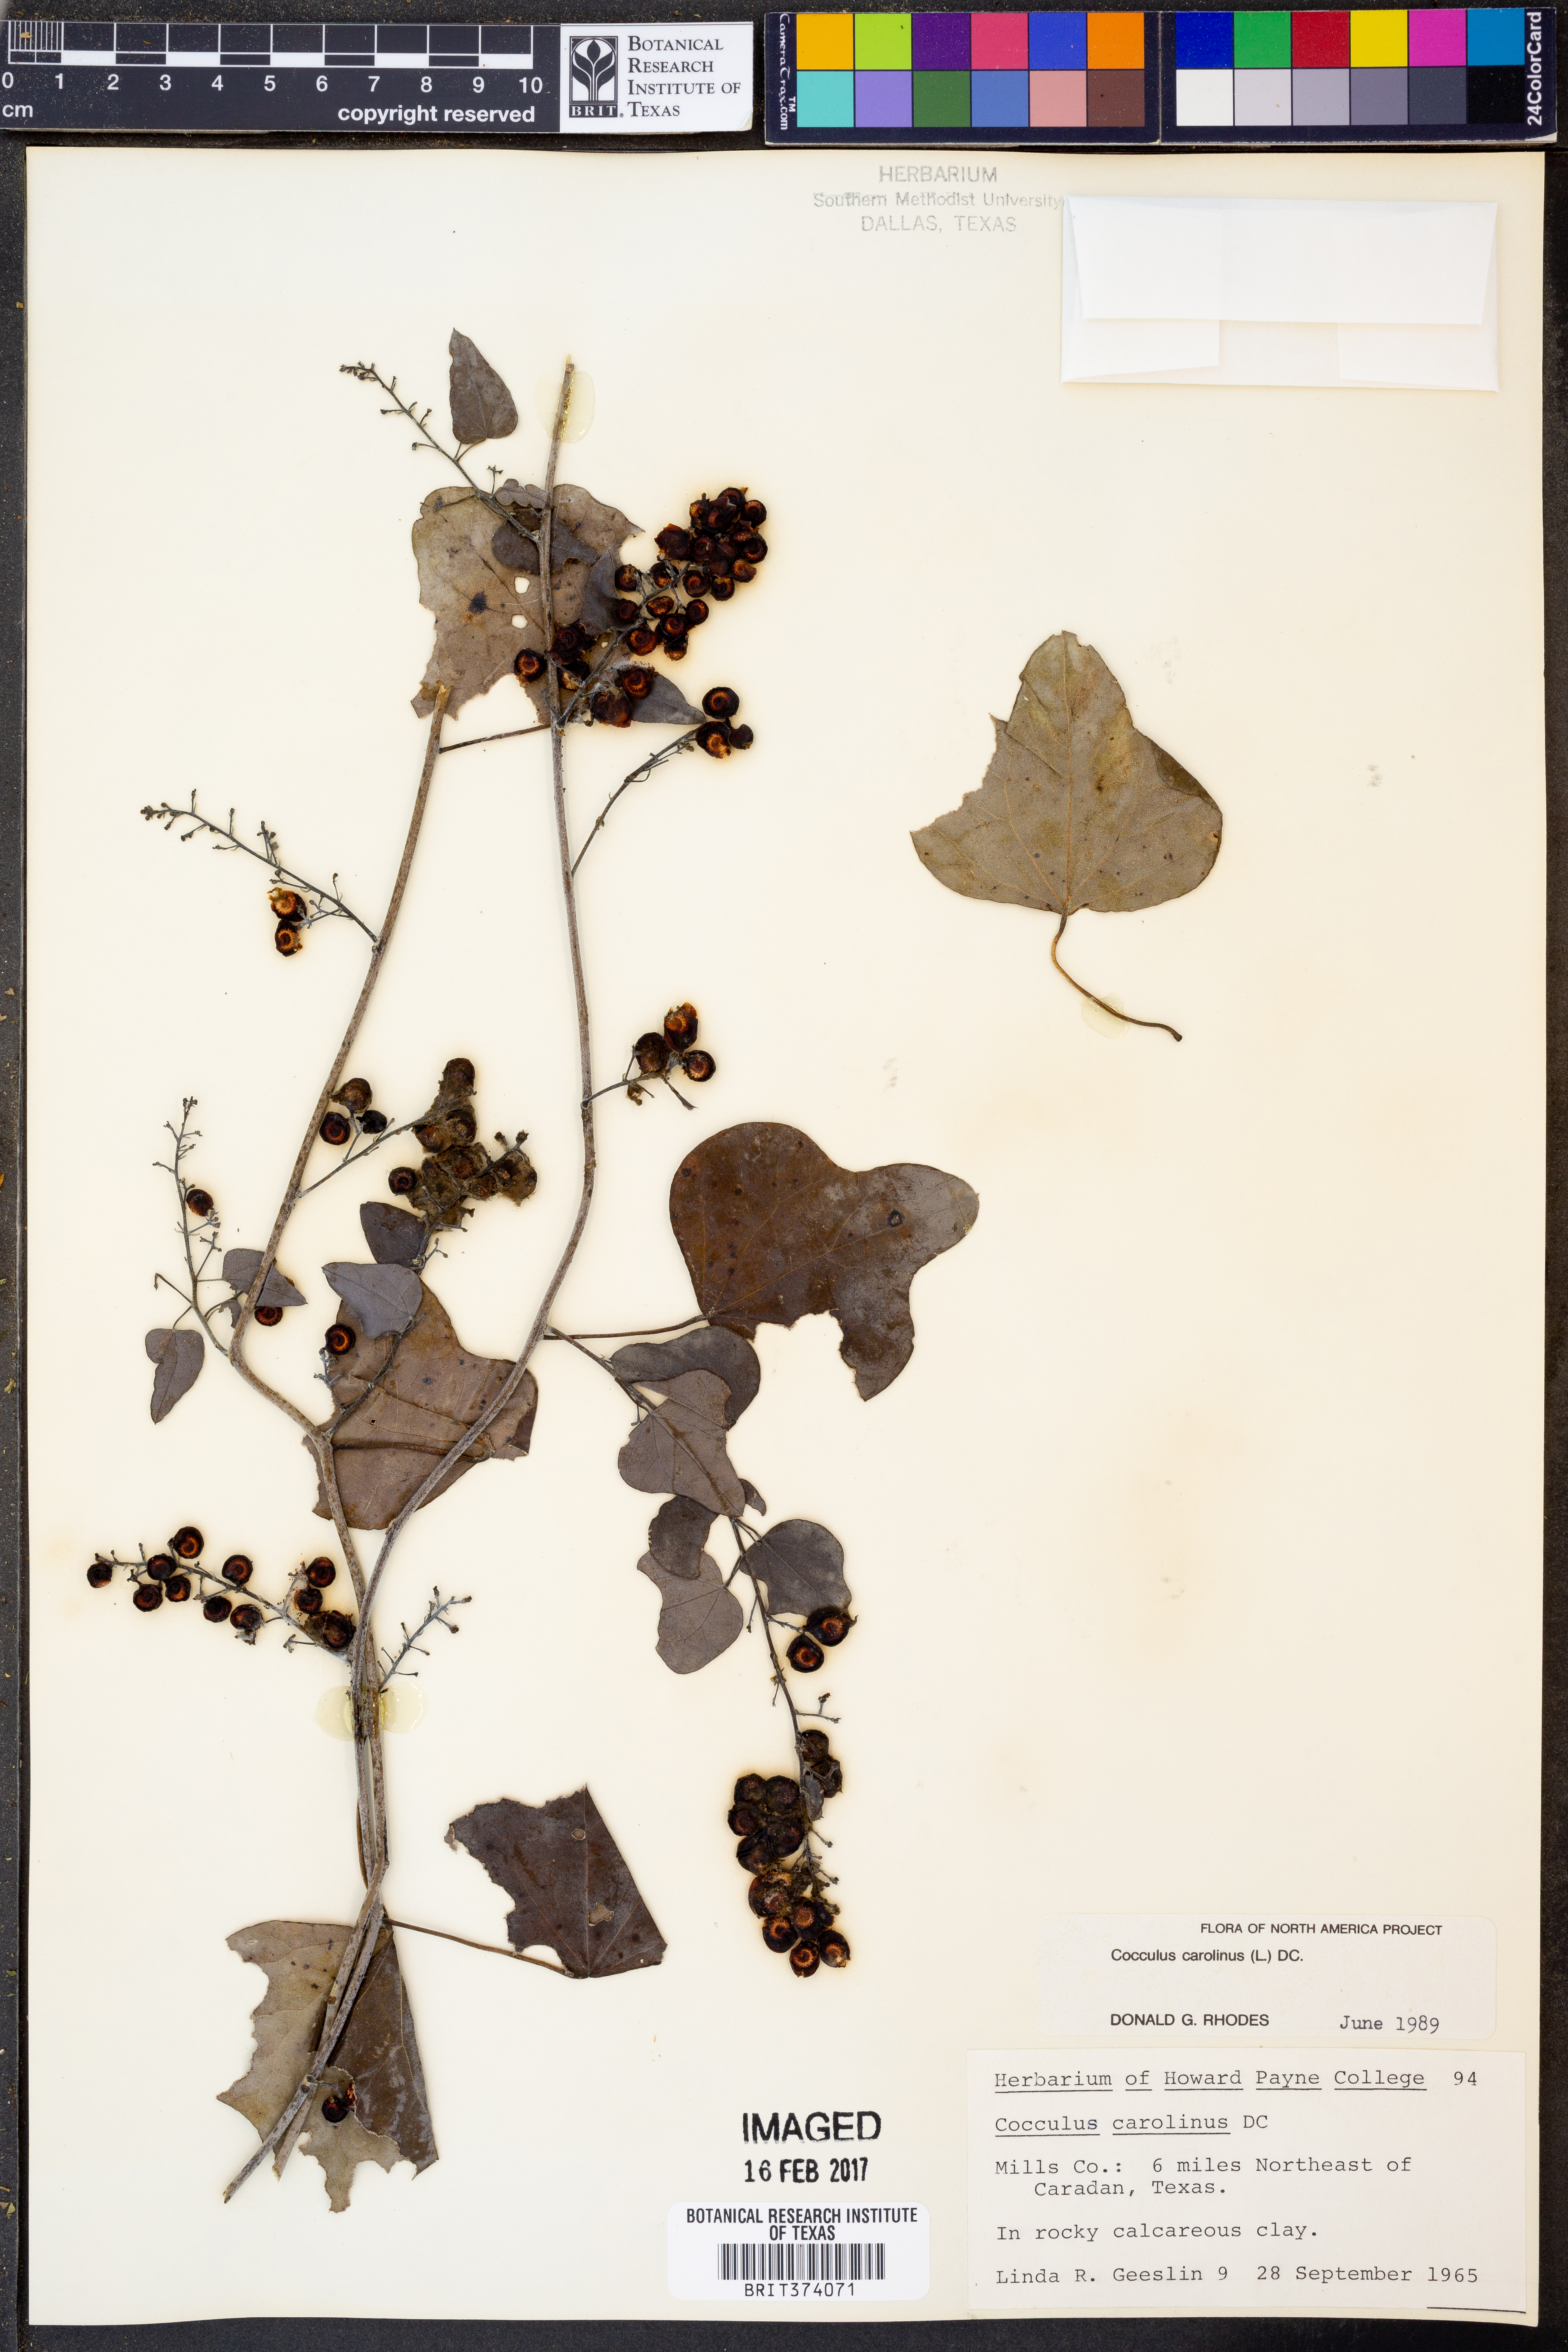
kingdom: Plantae
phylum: Tracheophyta
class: Magnoliopsida
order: Ranunculales
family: Menispermaceae
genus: Cocculus
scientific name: Cocculus carolinus
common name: Carolina moonseed
